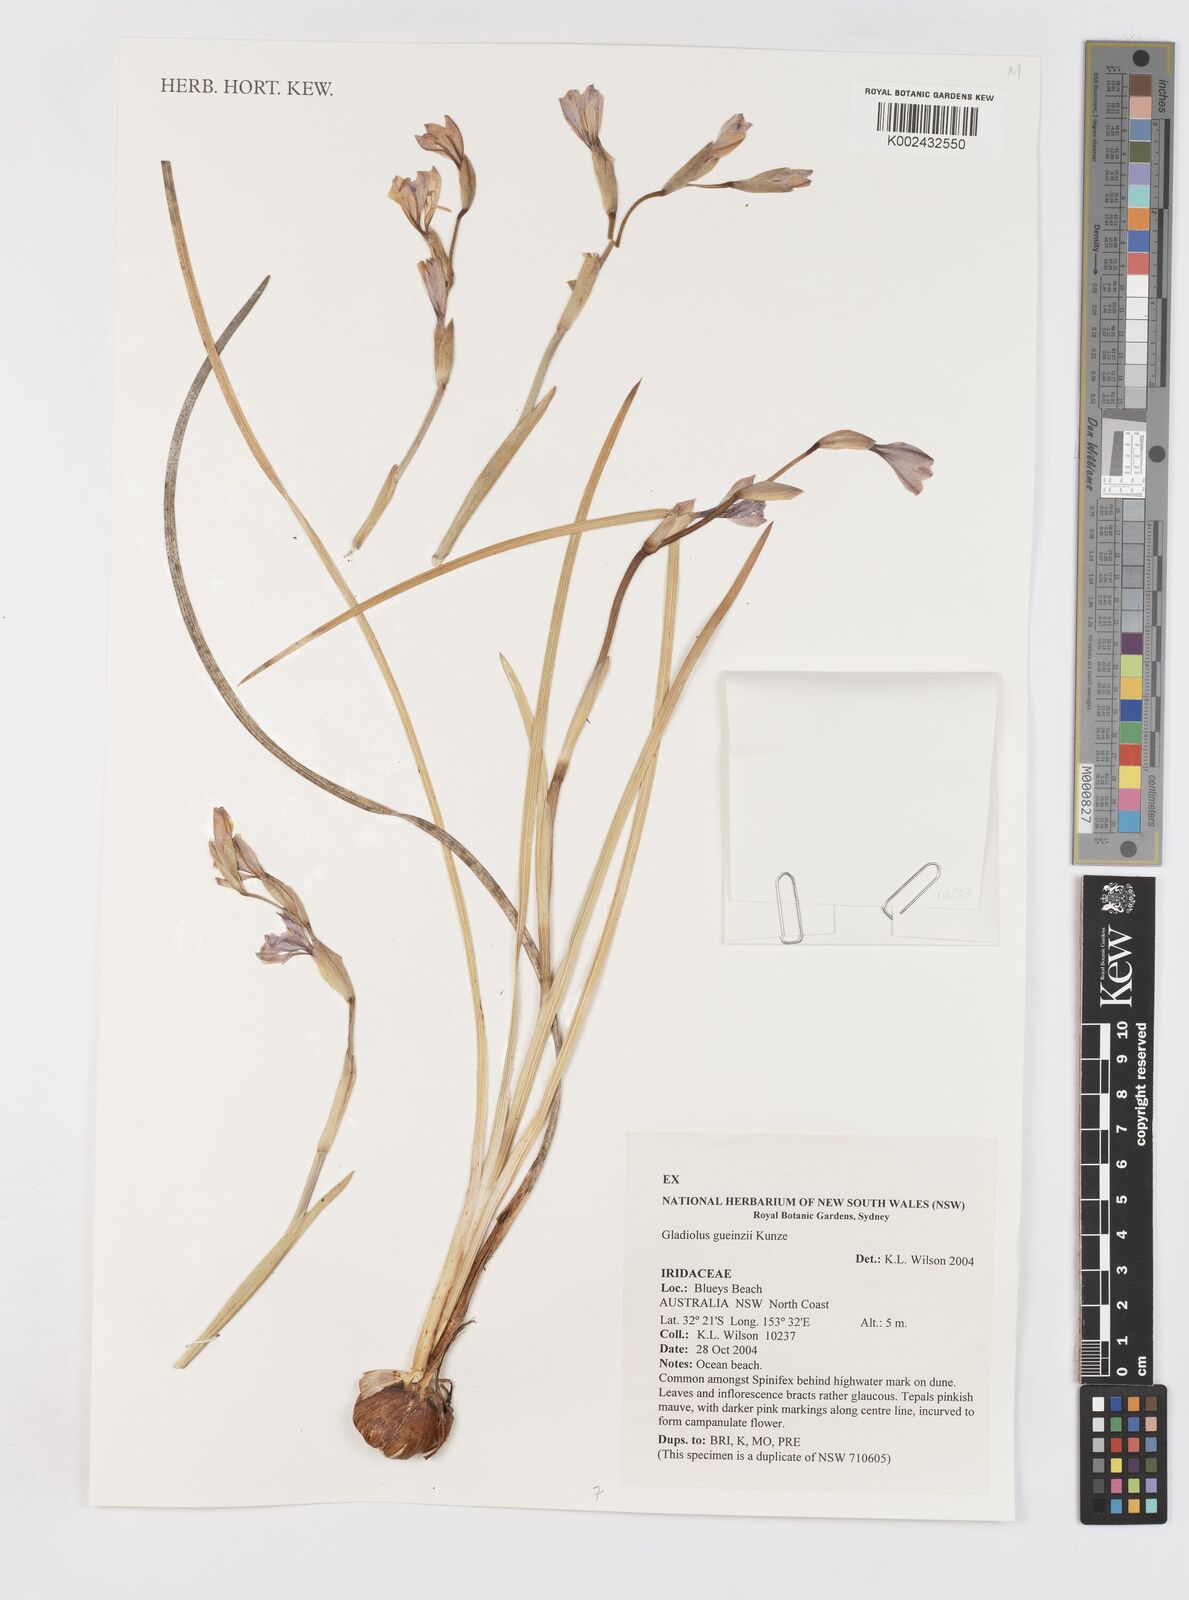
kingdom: Plantae
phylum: Tracheophyta
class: Liliopsida
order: Asparagales
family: Iridaceae
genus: Gladiolus
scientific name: Gladiolus gueinzii
